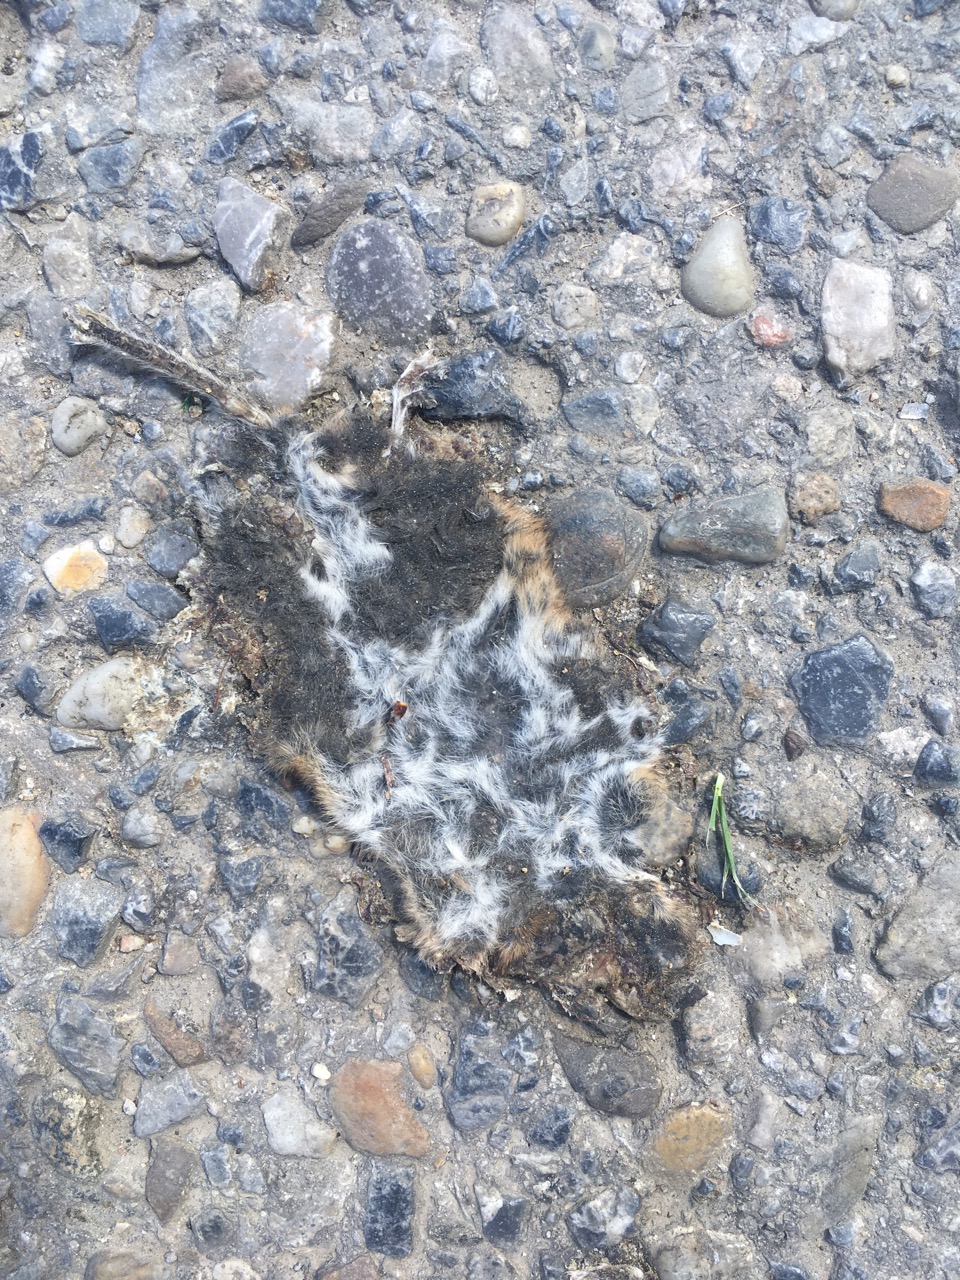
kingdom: Animalia
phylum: Chordata
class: Mammalia
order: Rodentia
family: Cricetidae
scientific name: Cricetidae
